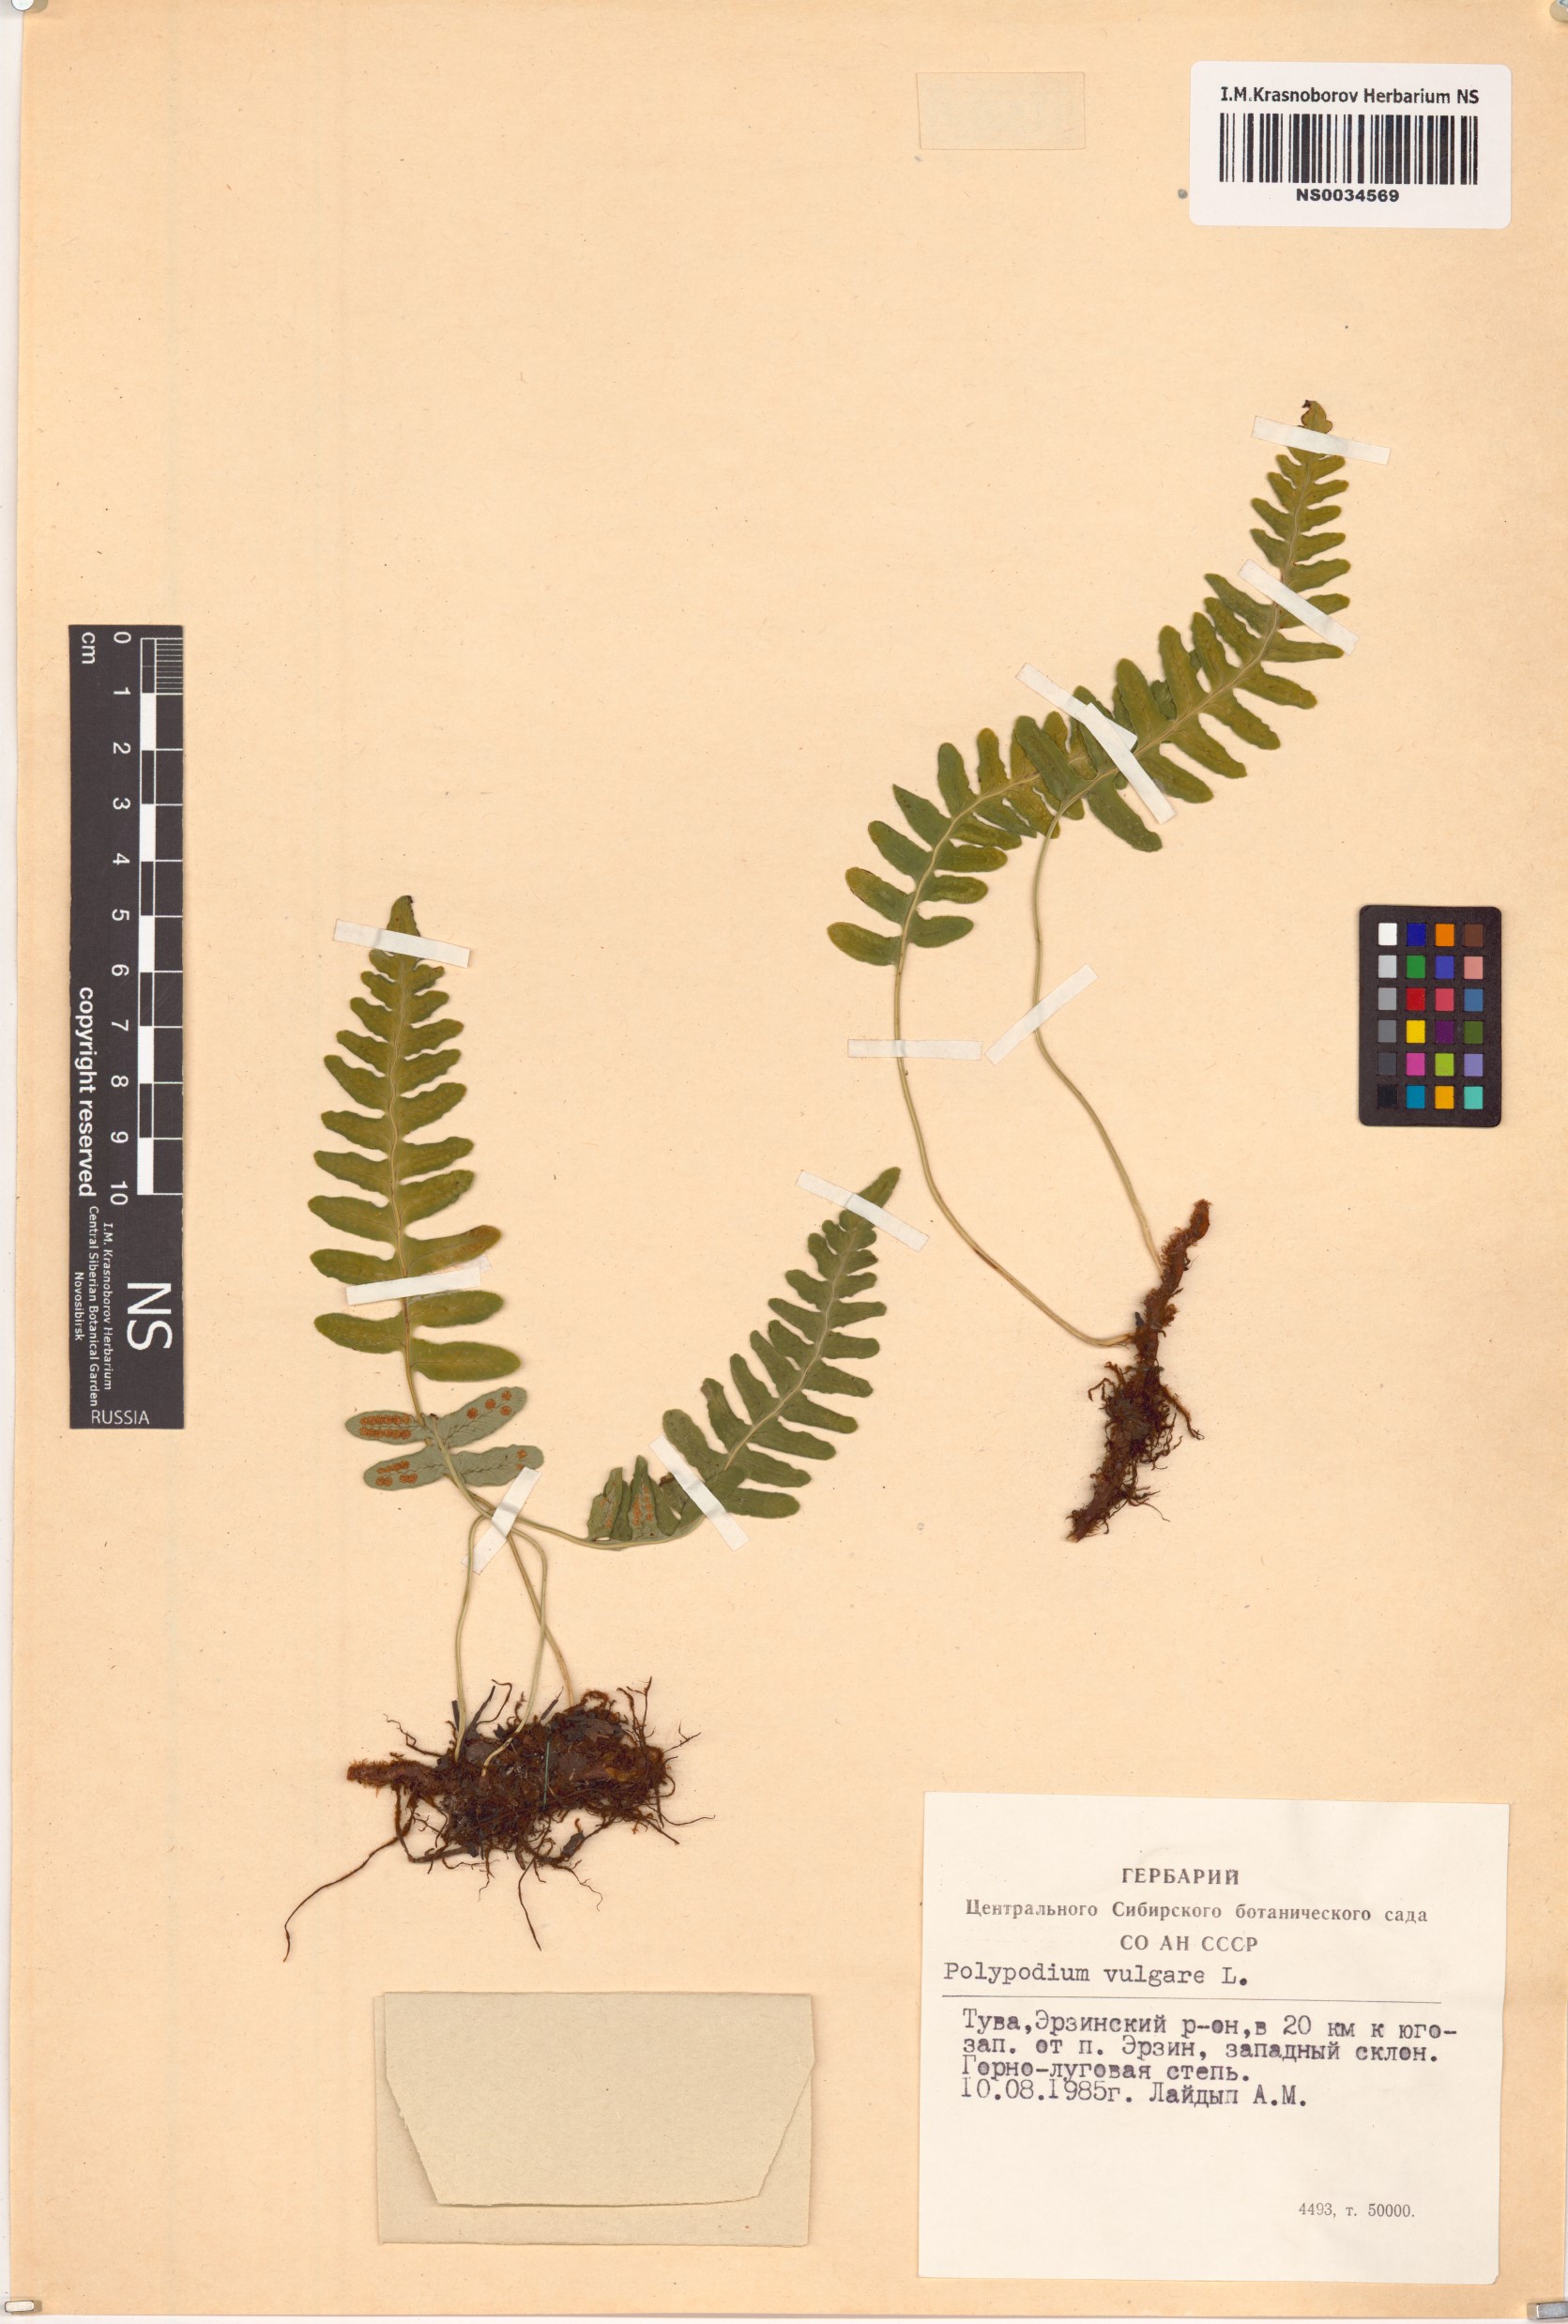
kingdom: Plantae
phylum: Tracheophyta
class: Polypodiopsida
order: Polypodiales
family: Polypodiaceae
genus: Polypodium
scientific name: Polypodium vulgare
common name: Common polypody
